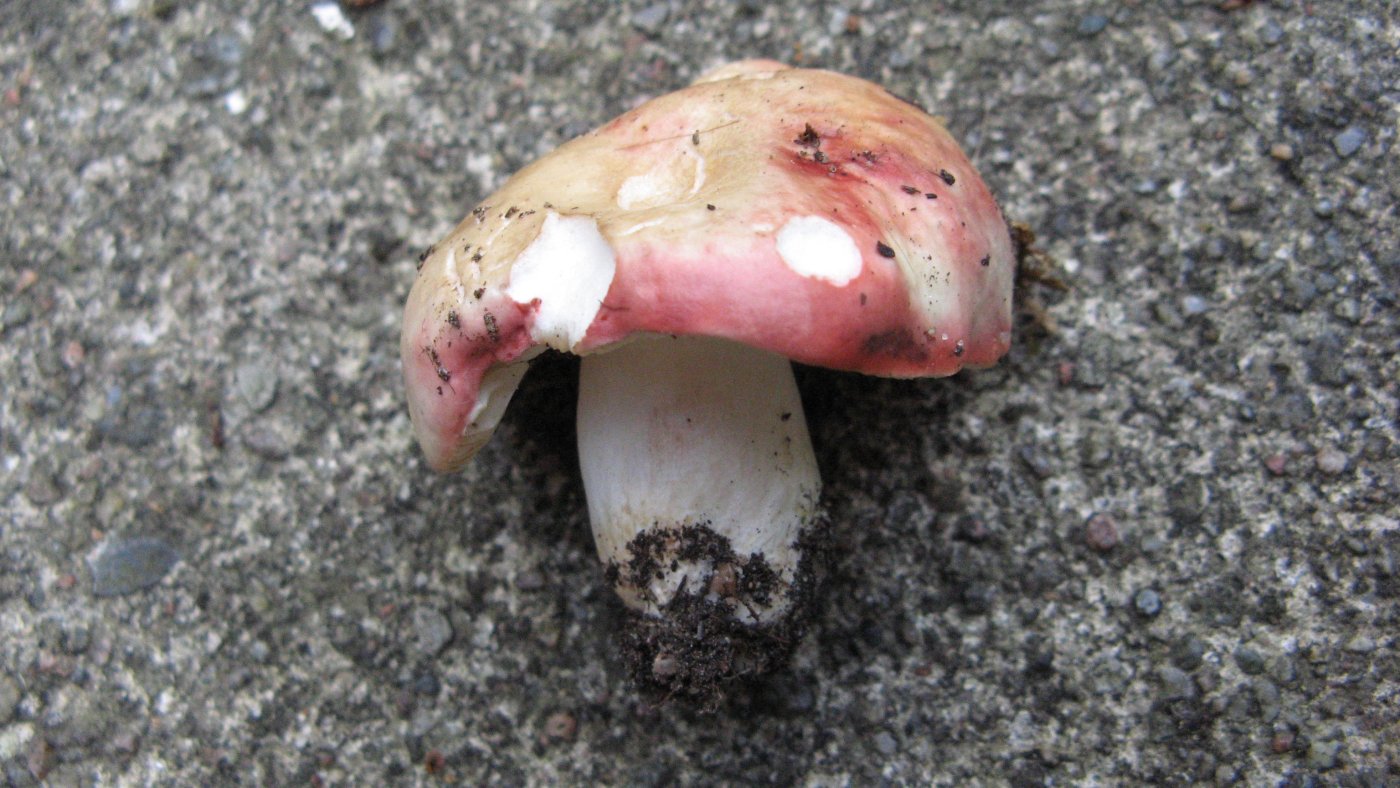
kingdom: Fungi
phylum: Basidiomycota
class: Agaricomycetes
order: Russulales
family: Russulaceae
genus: Russula
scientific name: Russula depallens
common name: falmende skørhat
